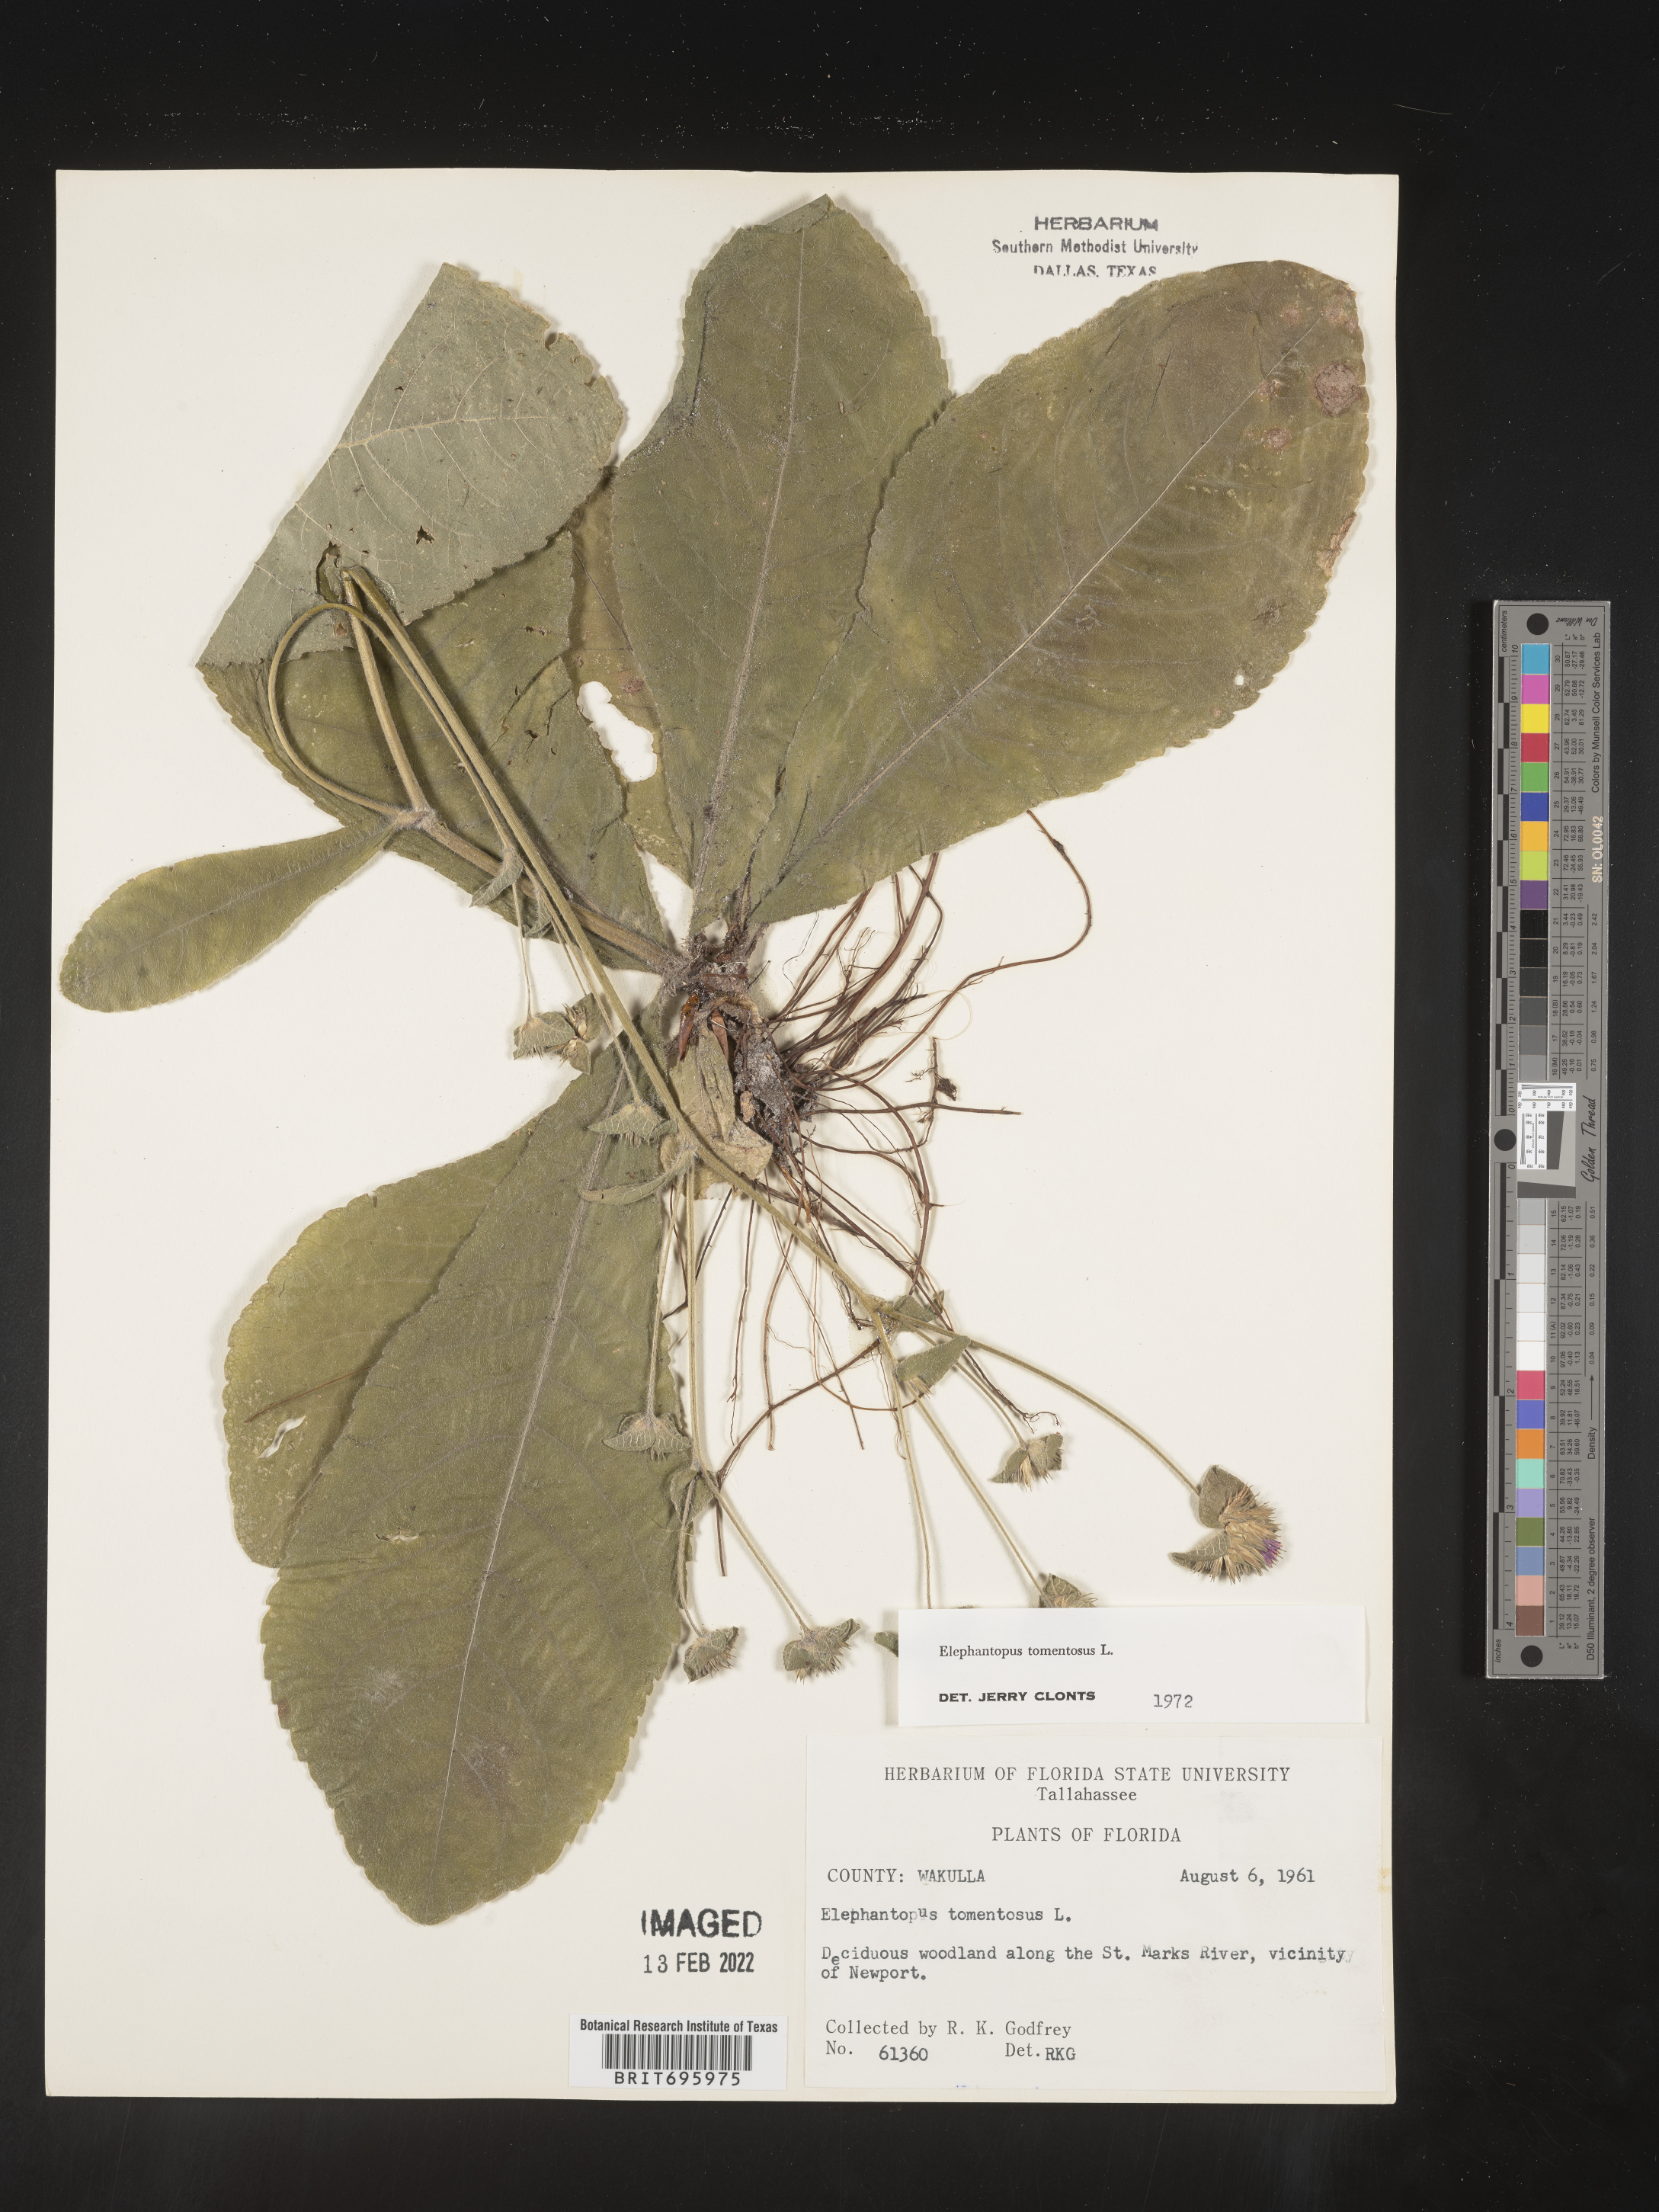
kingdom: Plantae
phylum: Tracheophyta
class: Magnoliopsida
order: Asterales
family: Asteraceae
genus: Elephantopus
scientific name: Elephantopus tomentosus
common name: Tobacco-weed
